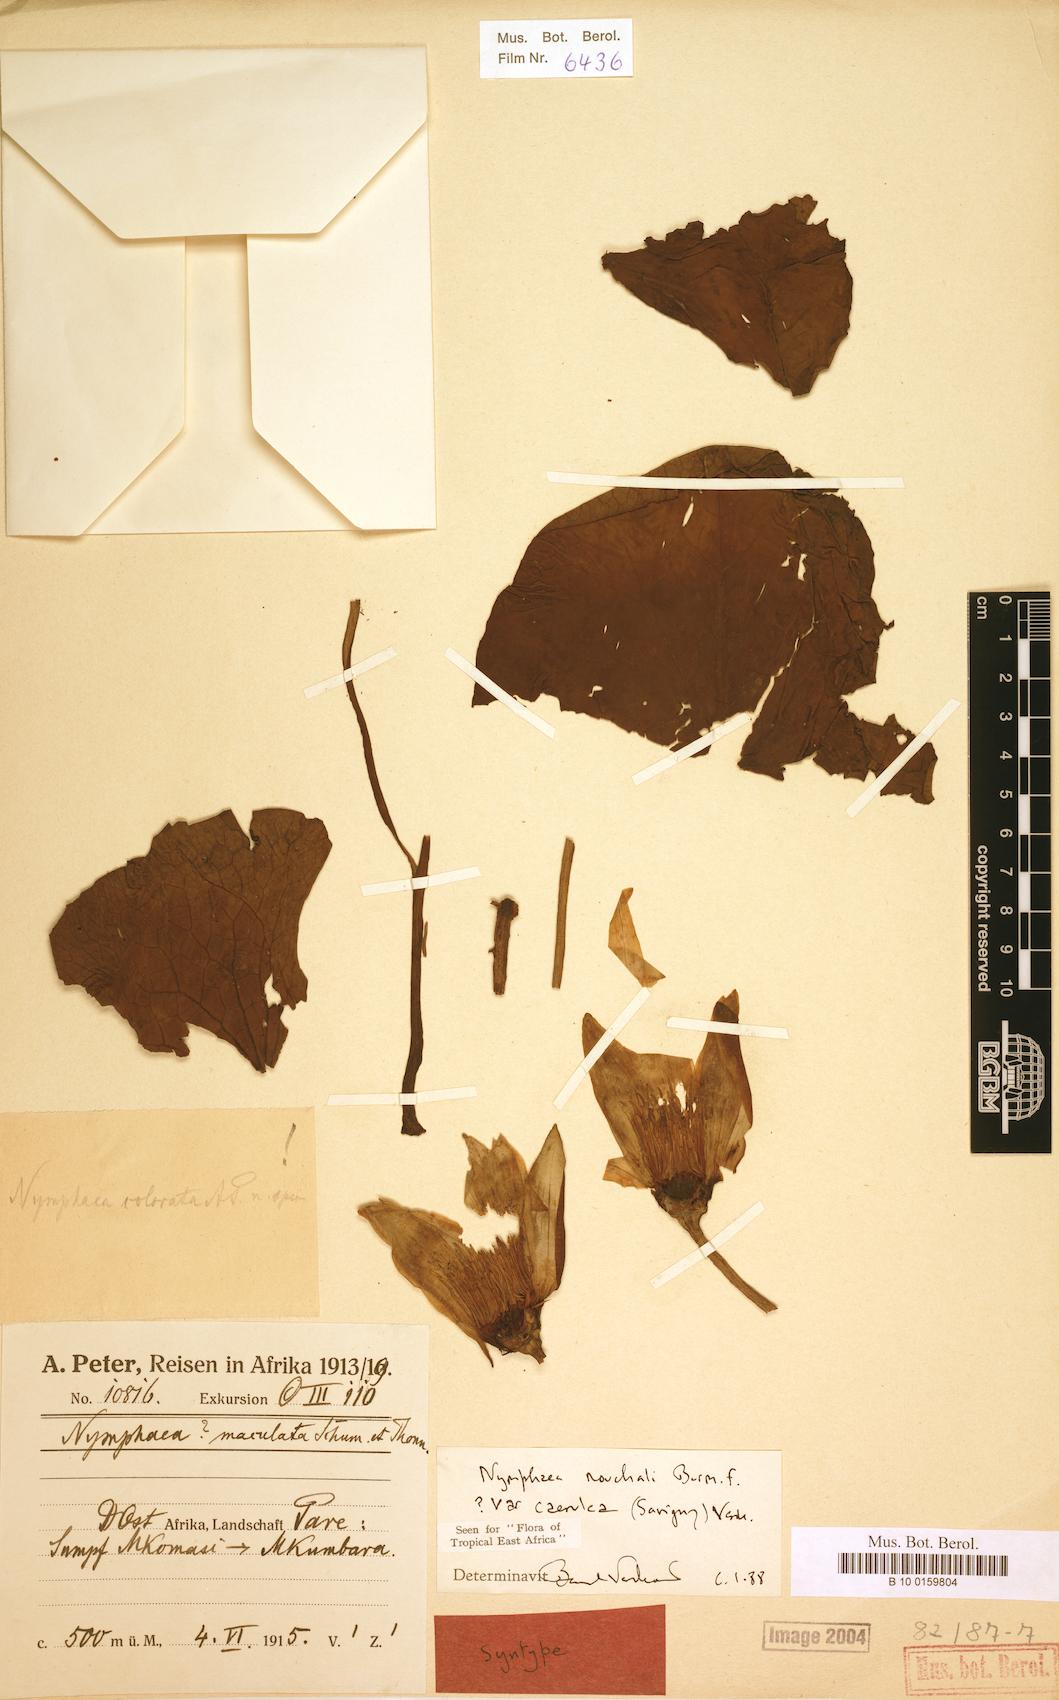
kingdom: Plantae
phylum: Tracheophyta
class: Magnoliopsida
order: Nymphaeales
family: Nymphaeaceae
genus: Nymphaea
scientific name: Nymphaea nouchali
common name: Blue lotus
